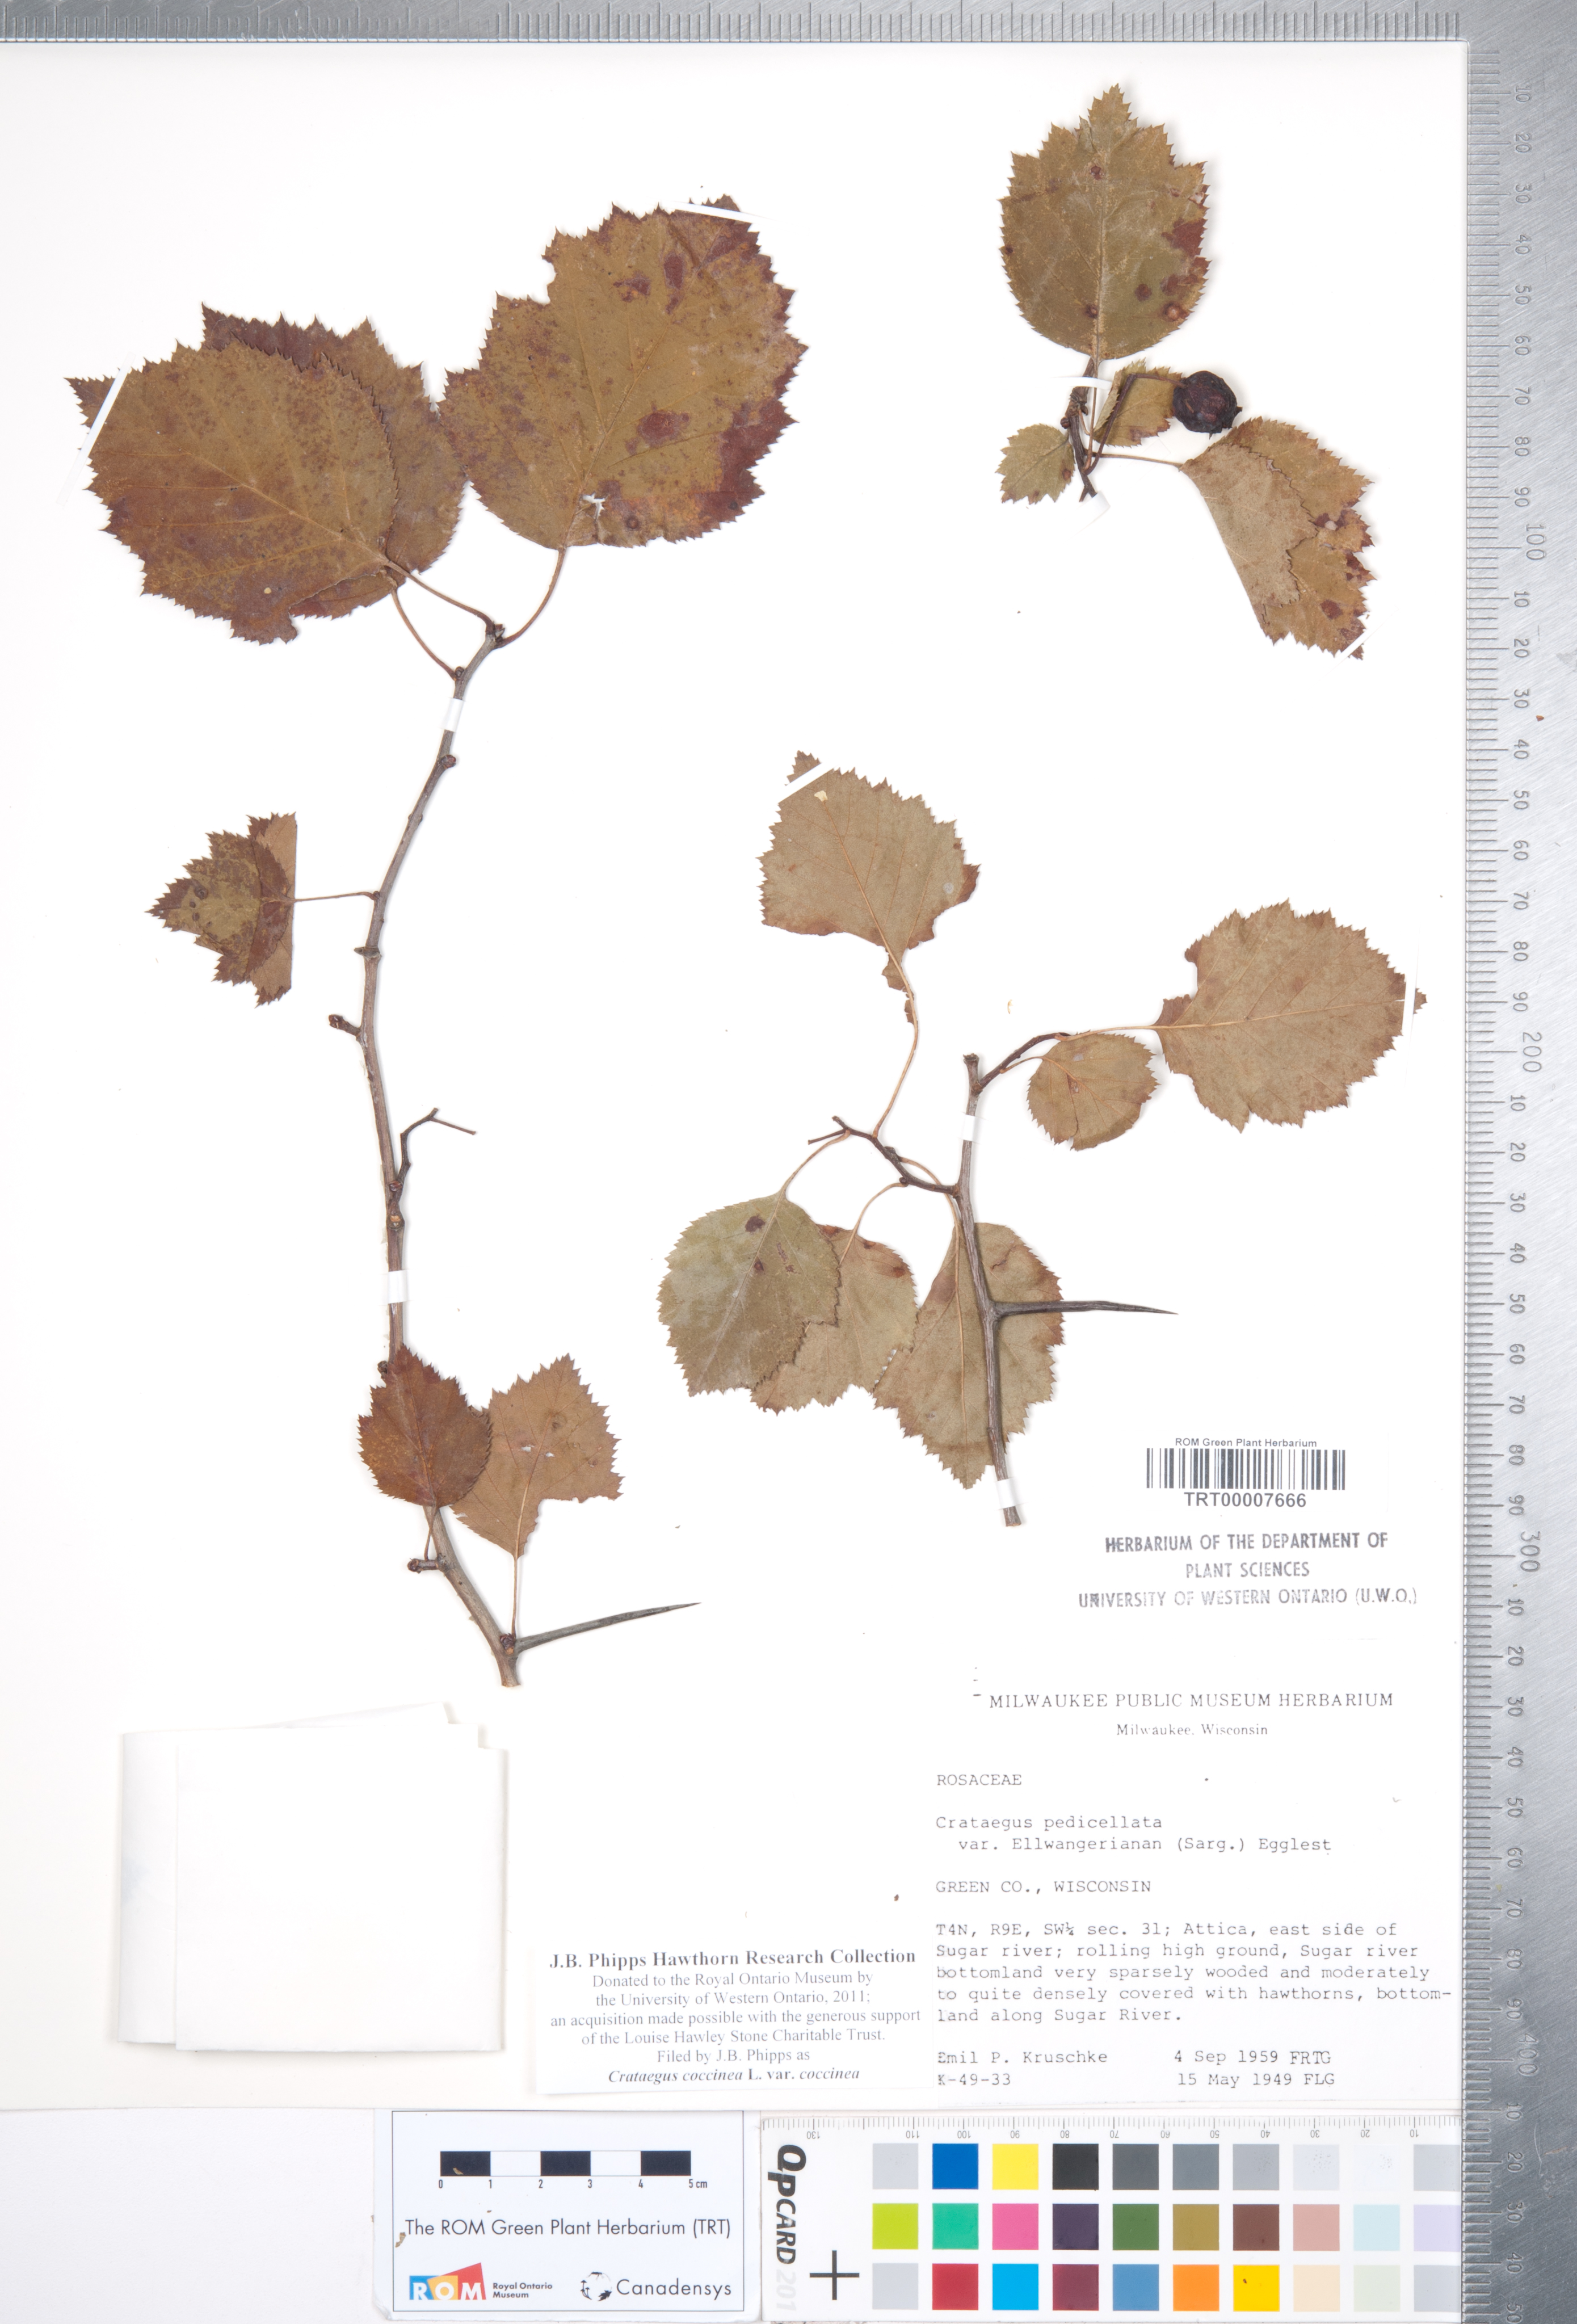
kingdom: Plantae
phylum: Tracheophyta
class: Magnoliopsida
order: Rosales
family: Rosaceae
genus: Crataegus
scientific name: Crataegus coccinea
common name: Scarlet hawthorn
